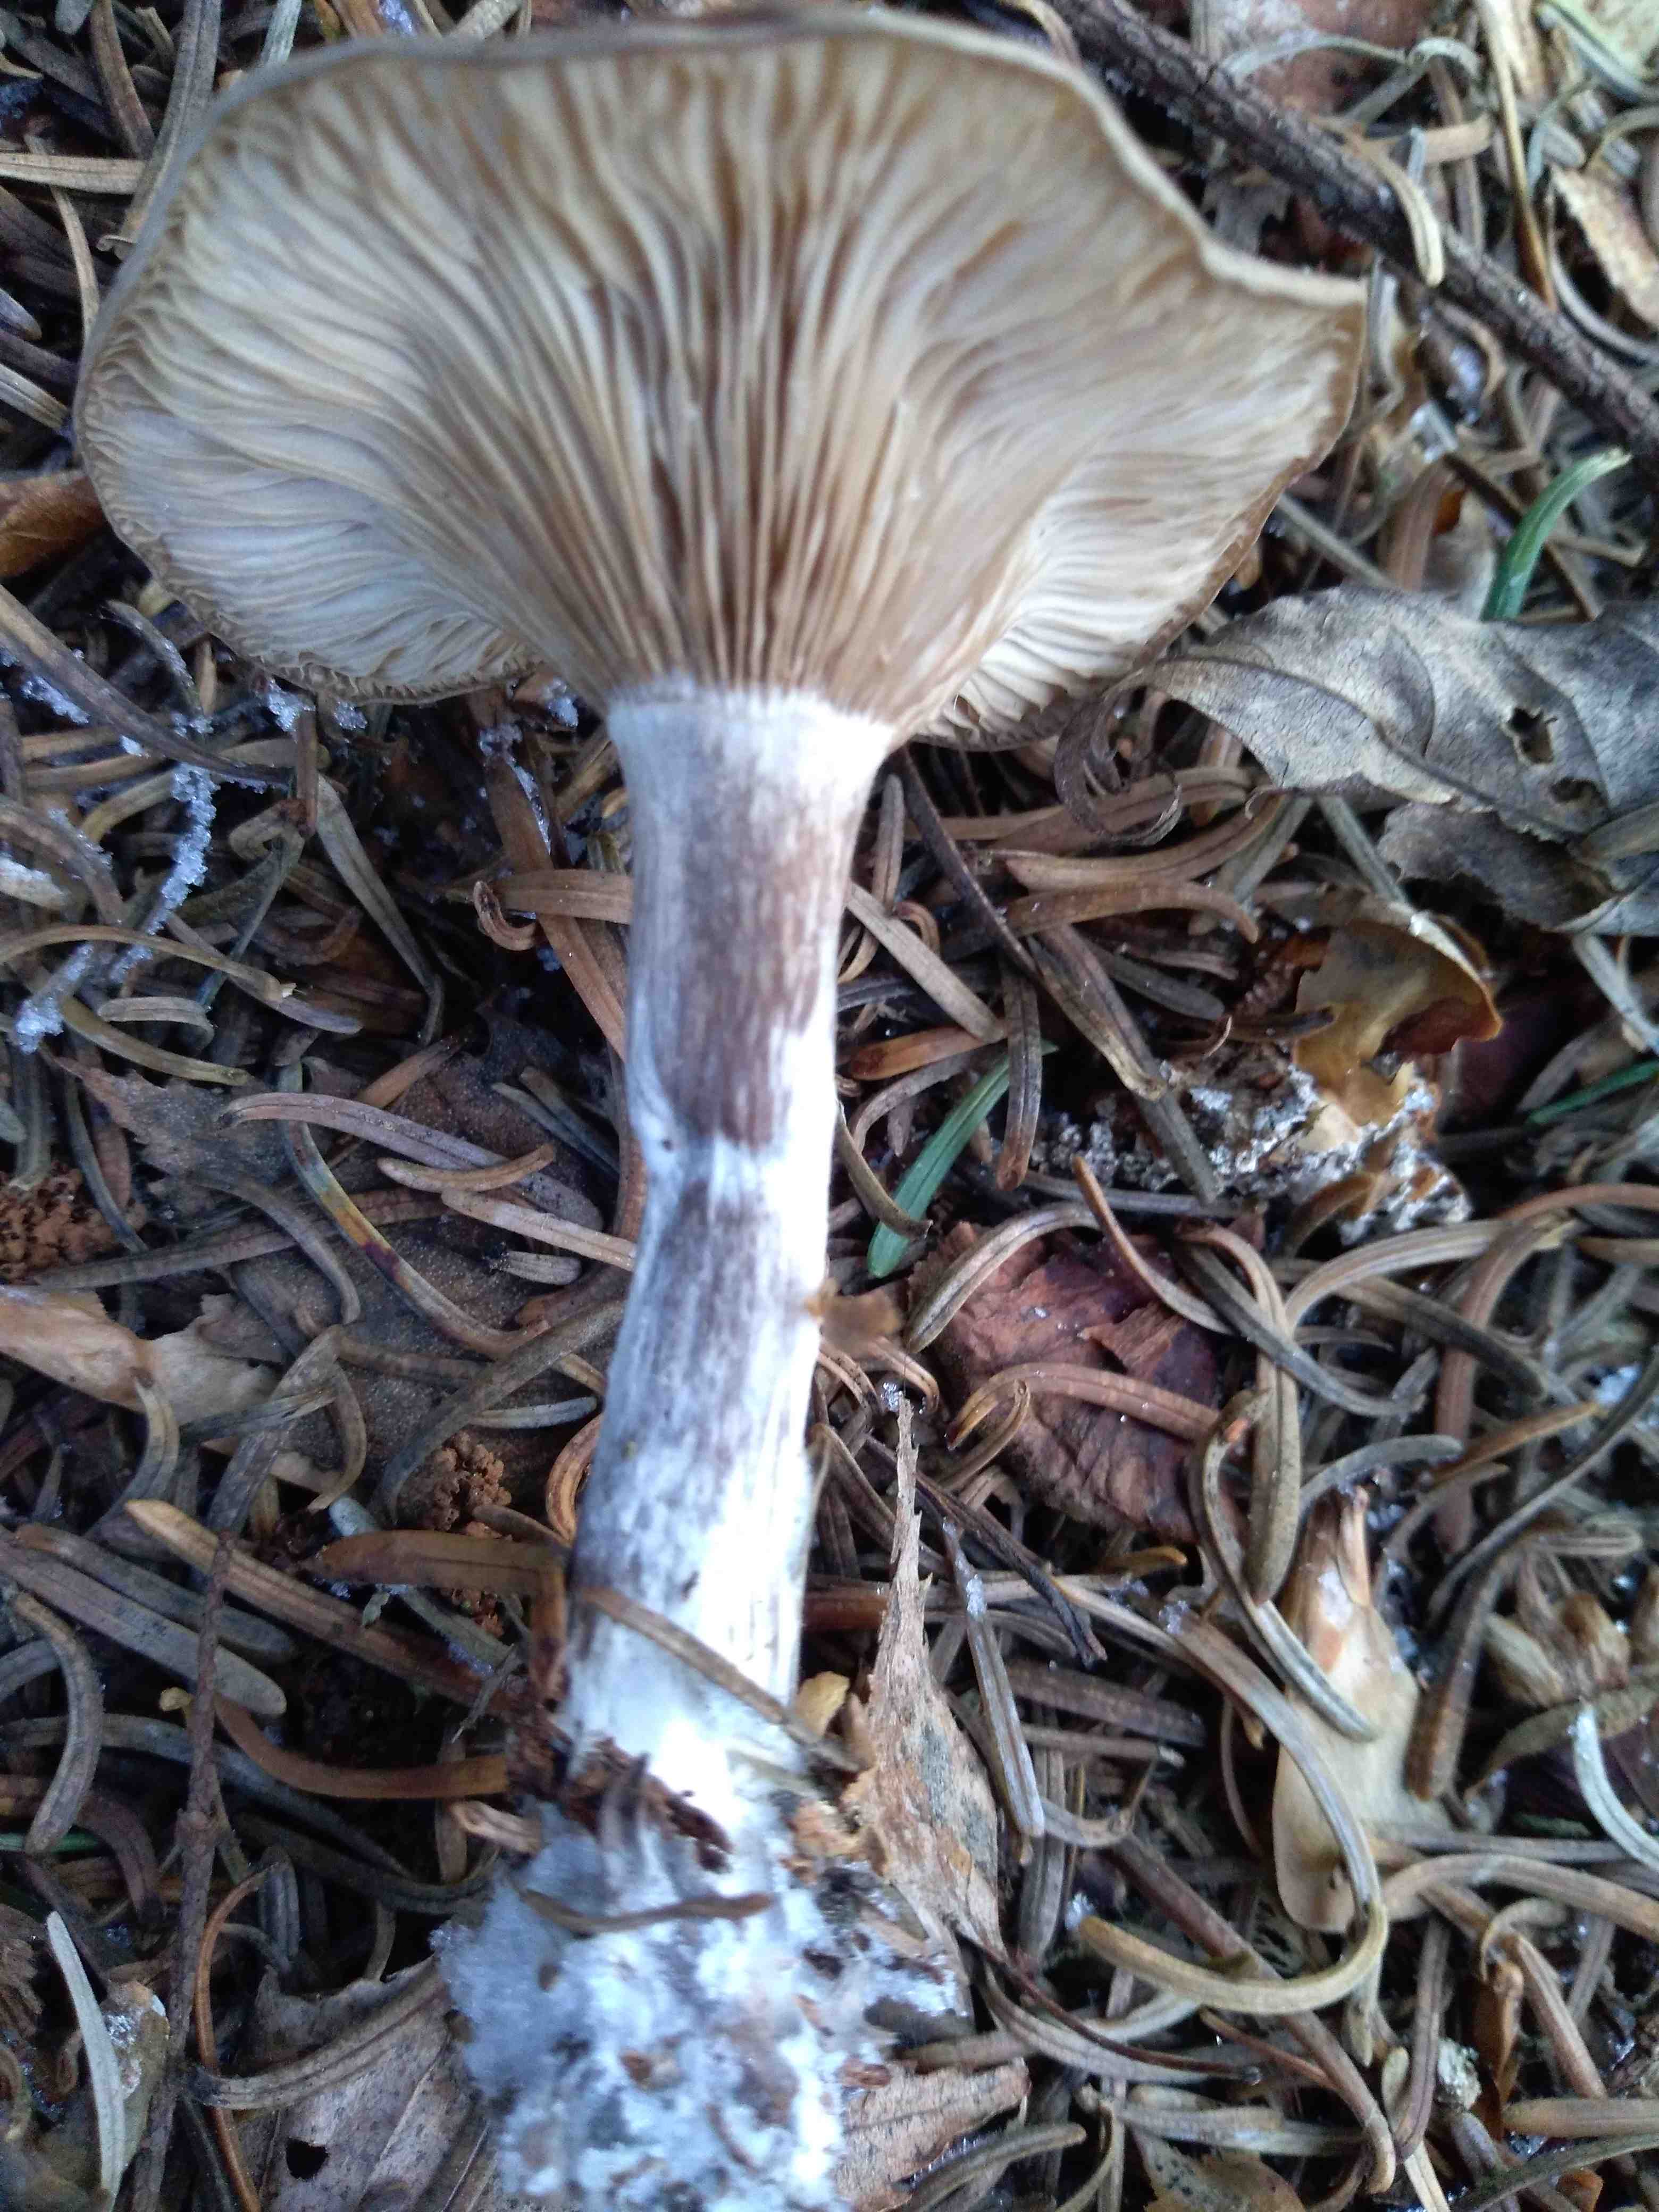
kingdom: Fungi
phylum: Basidiomycota
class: Agaricomycetes
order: Agaricales
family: Pseudoclitocybaceae
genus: Pseudoclitocybe
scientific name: Pseudoclitocybe cyathiformis
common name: almindelig bægertragthat
